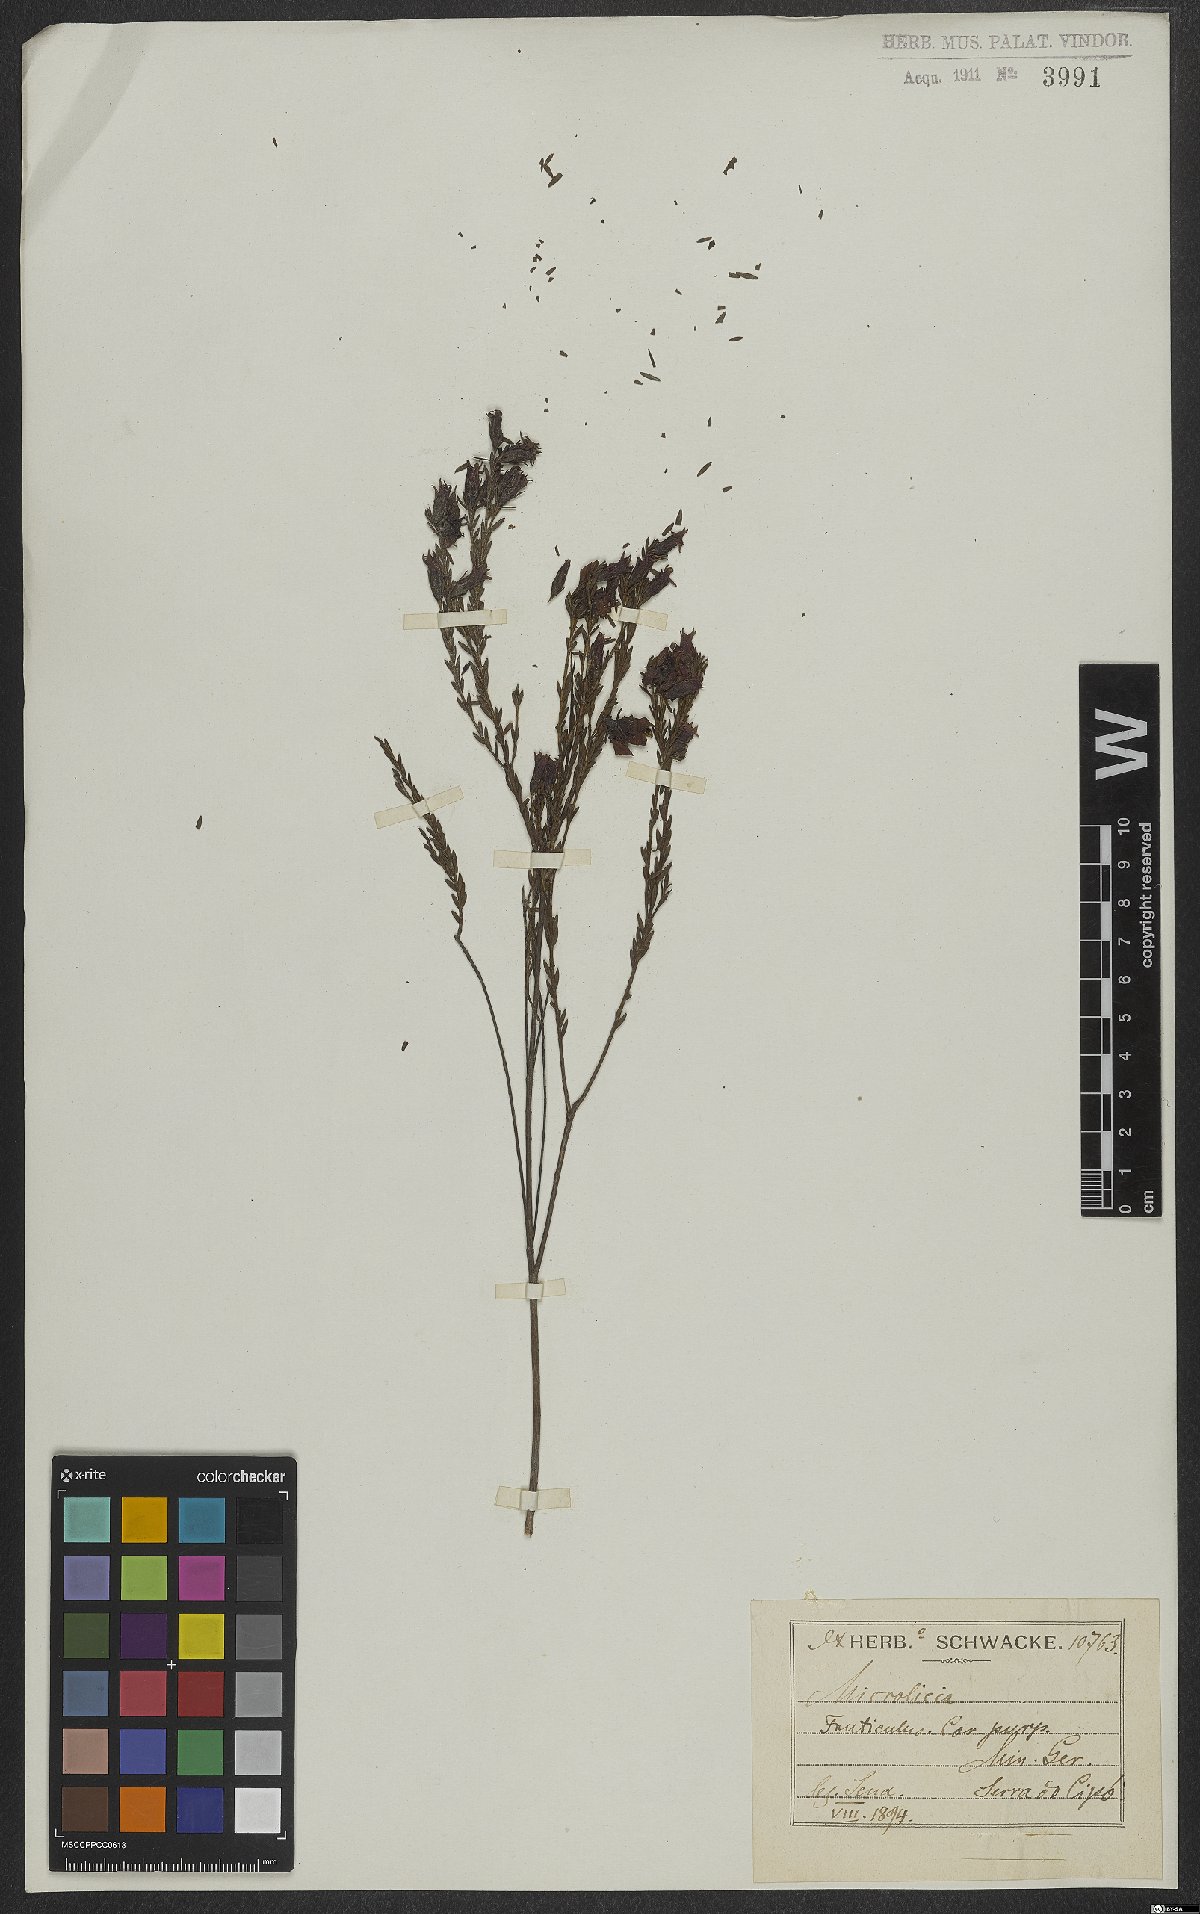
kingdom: Plantae
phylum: Tracheophyta
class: Magnoliopsida
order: Myrtales
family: Melastomataceae
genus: Microlicia
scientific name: Microlicia
